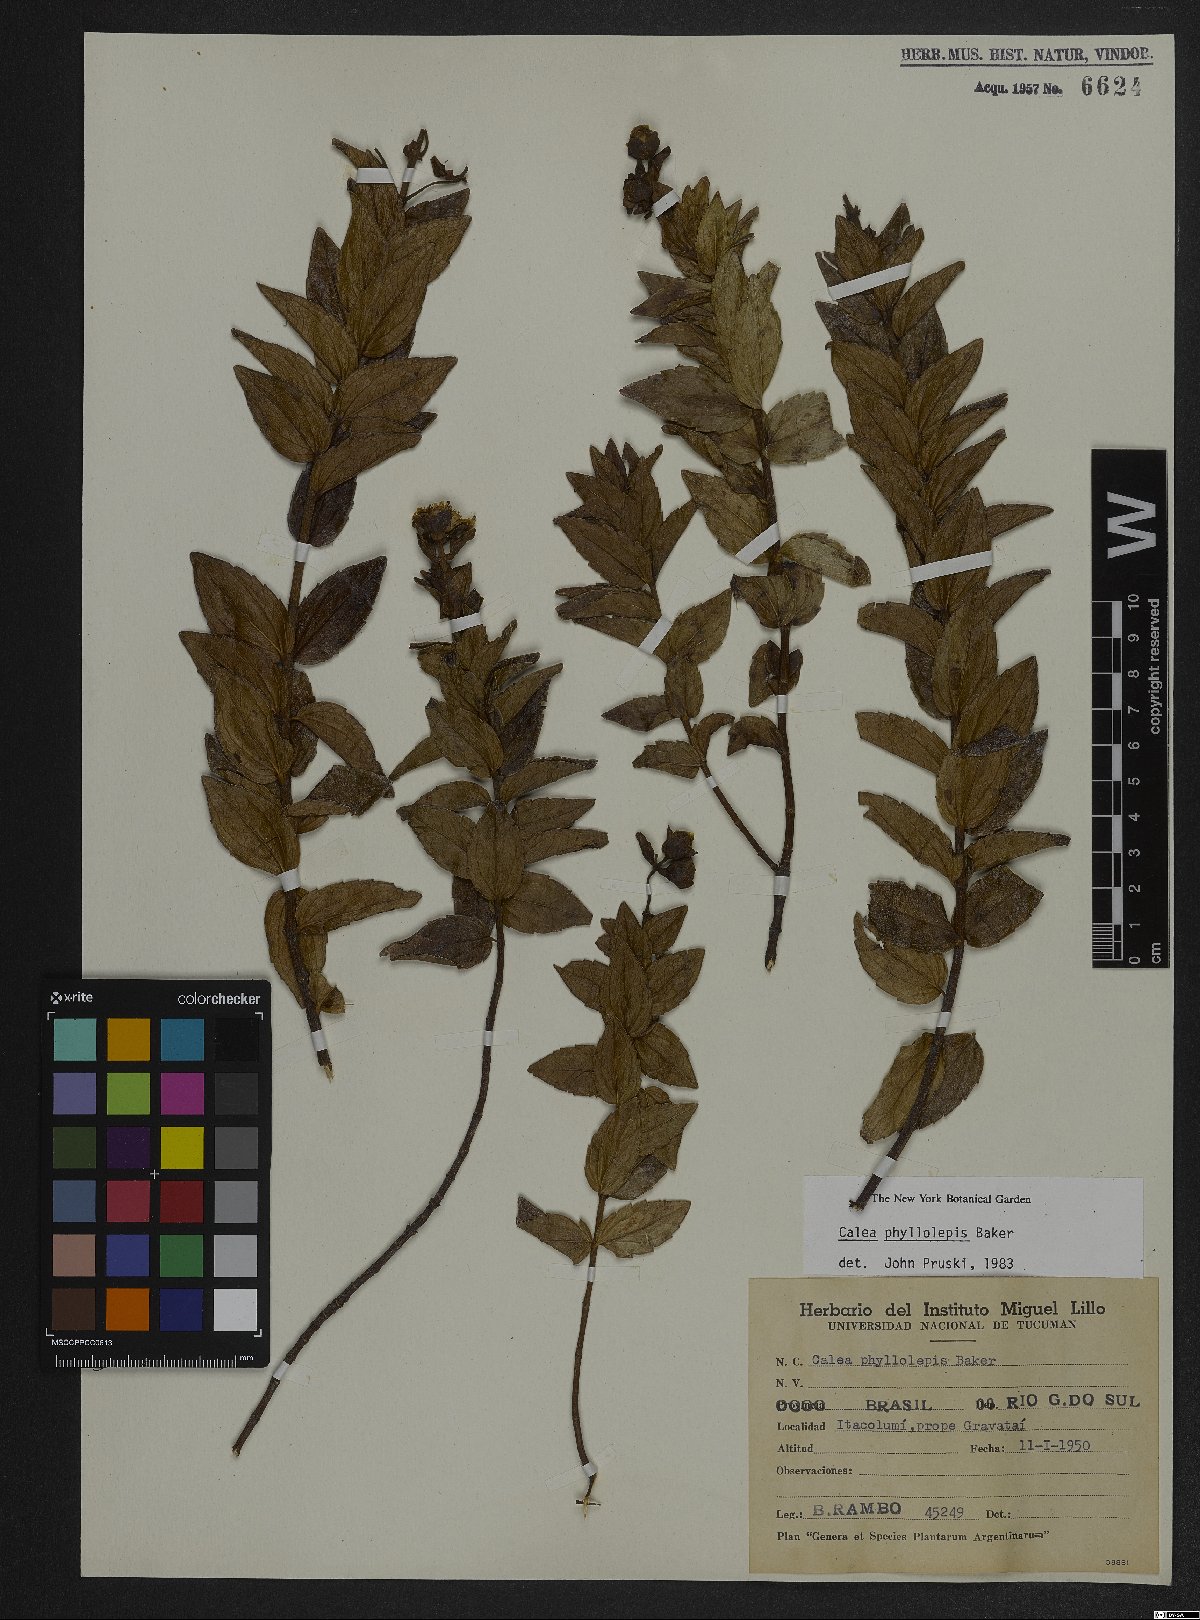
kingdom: Plantae
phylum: Tracheophyta
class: Magnoliopsida
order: Asterales
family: Asteraceae
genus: Calea
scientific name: Calea phyllolepis
